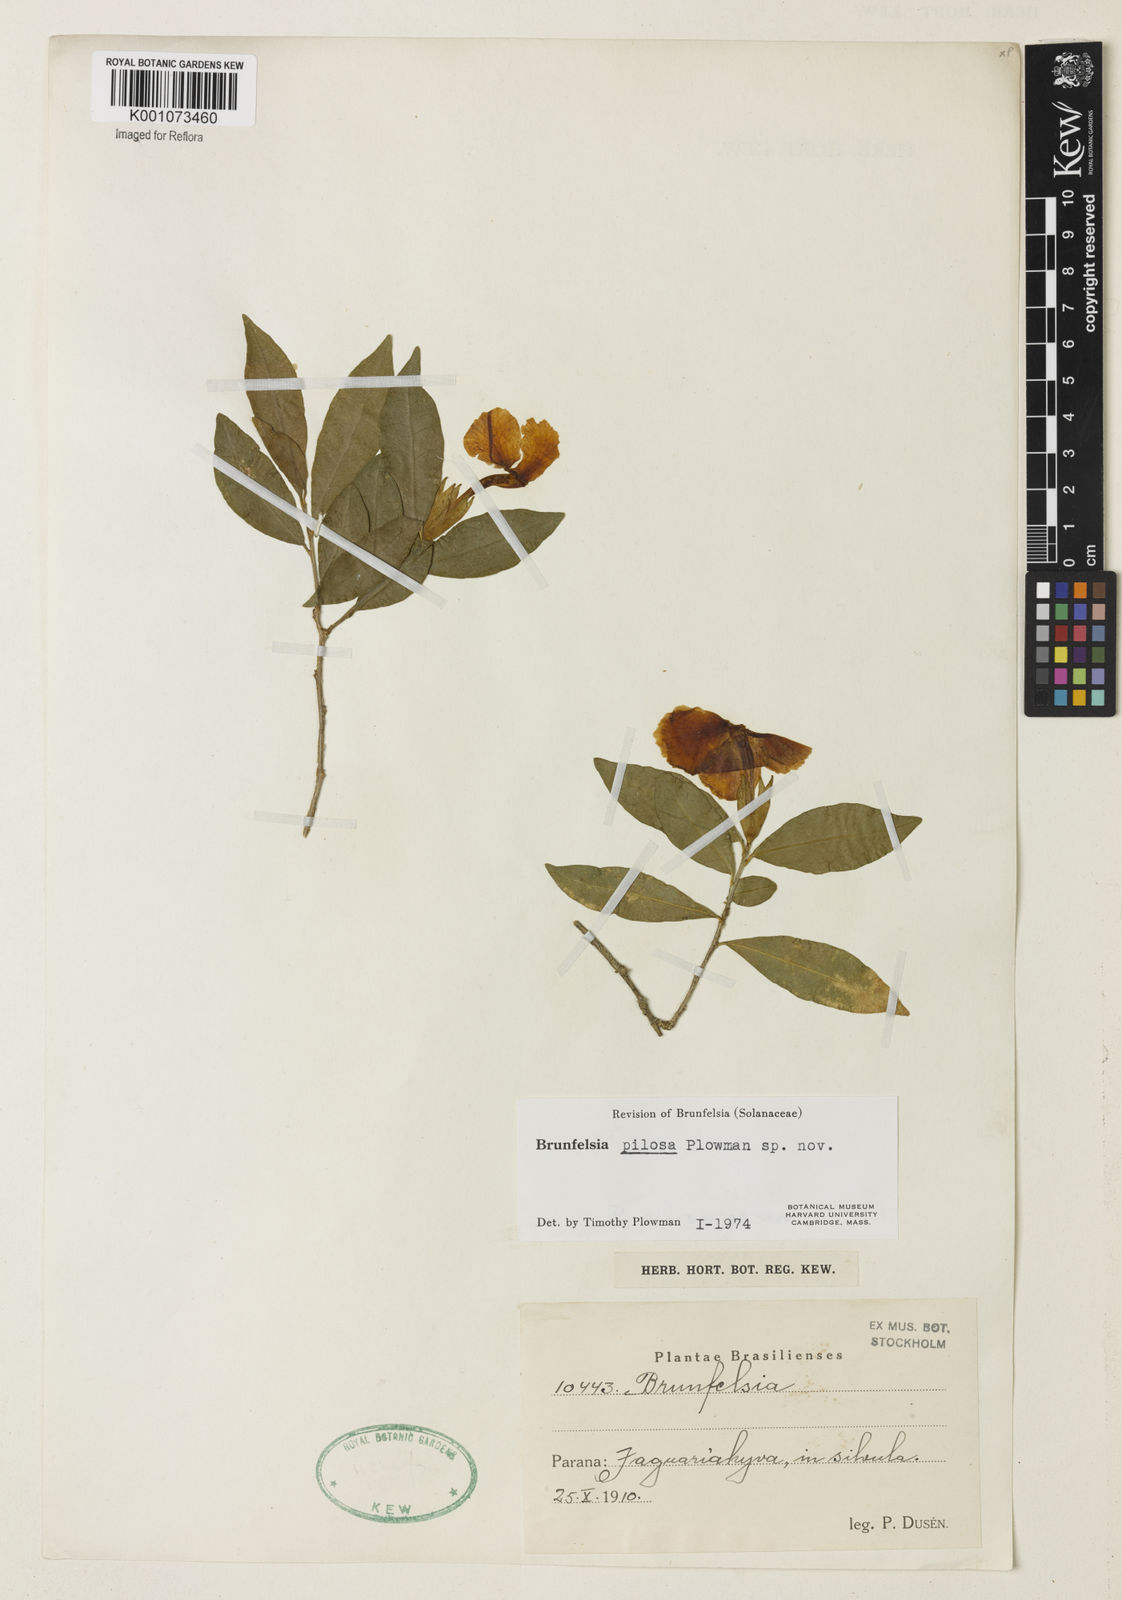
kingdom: Plantae
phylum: Tracheophyta
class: Magnoliopsida
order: Solanales
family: Solanaceae
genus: Brunfelsia
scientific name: Brunfelsia pilosa
